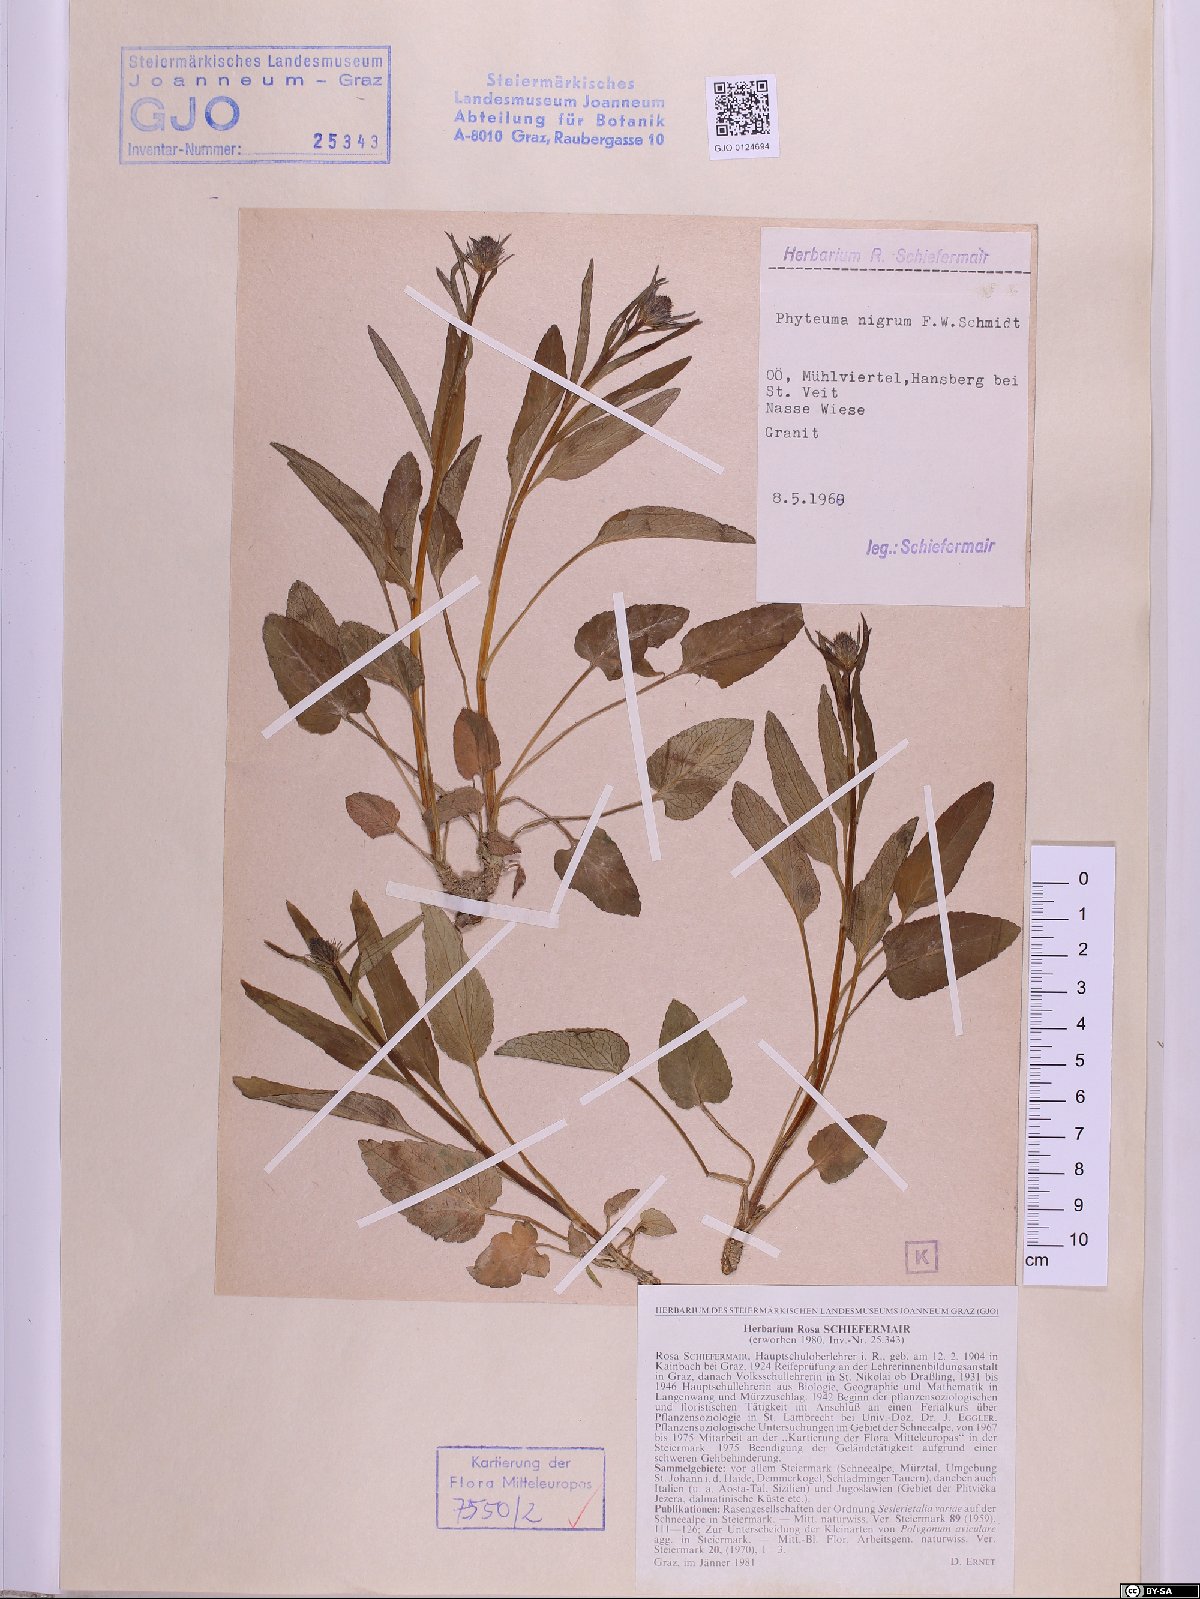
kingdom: Plantae
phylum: Tracheophyta
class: Magnoliopsida
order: Asterales
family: Campanulaceae
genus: Phyteuma
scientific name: Phyteuma nigrum
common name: Black rampion
